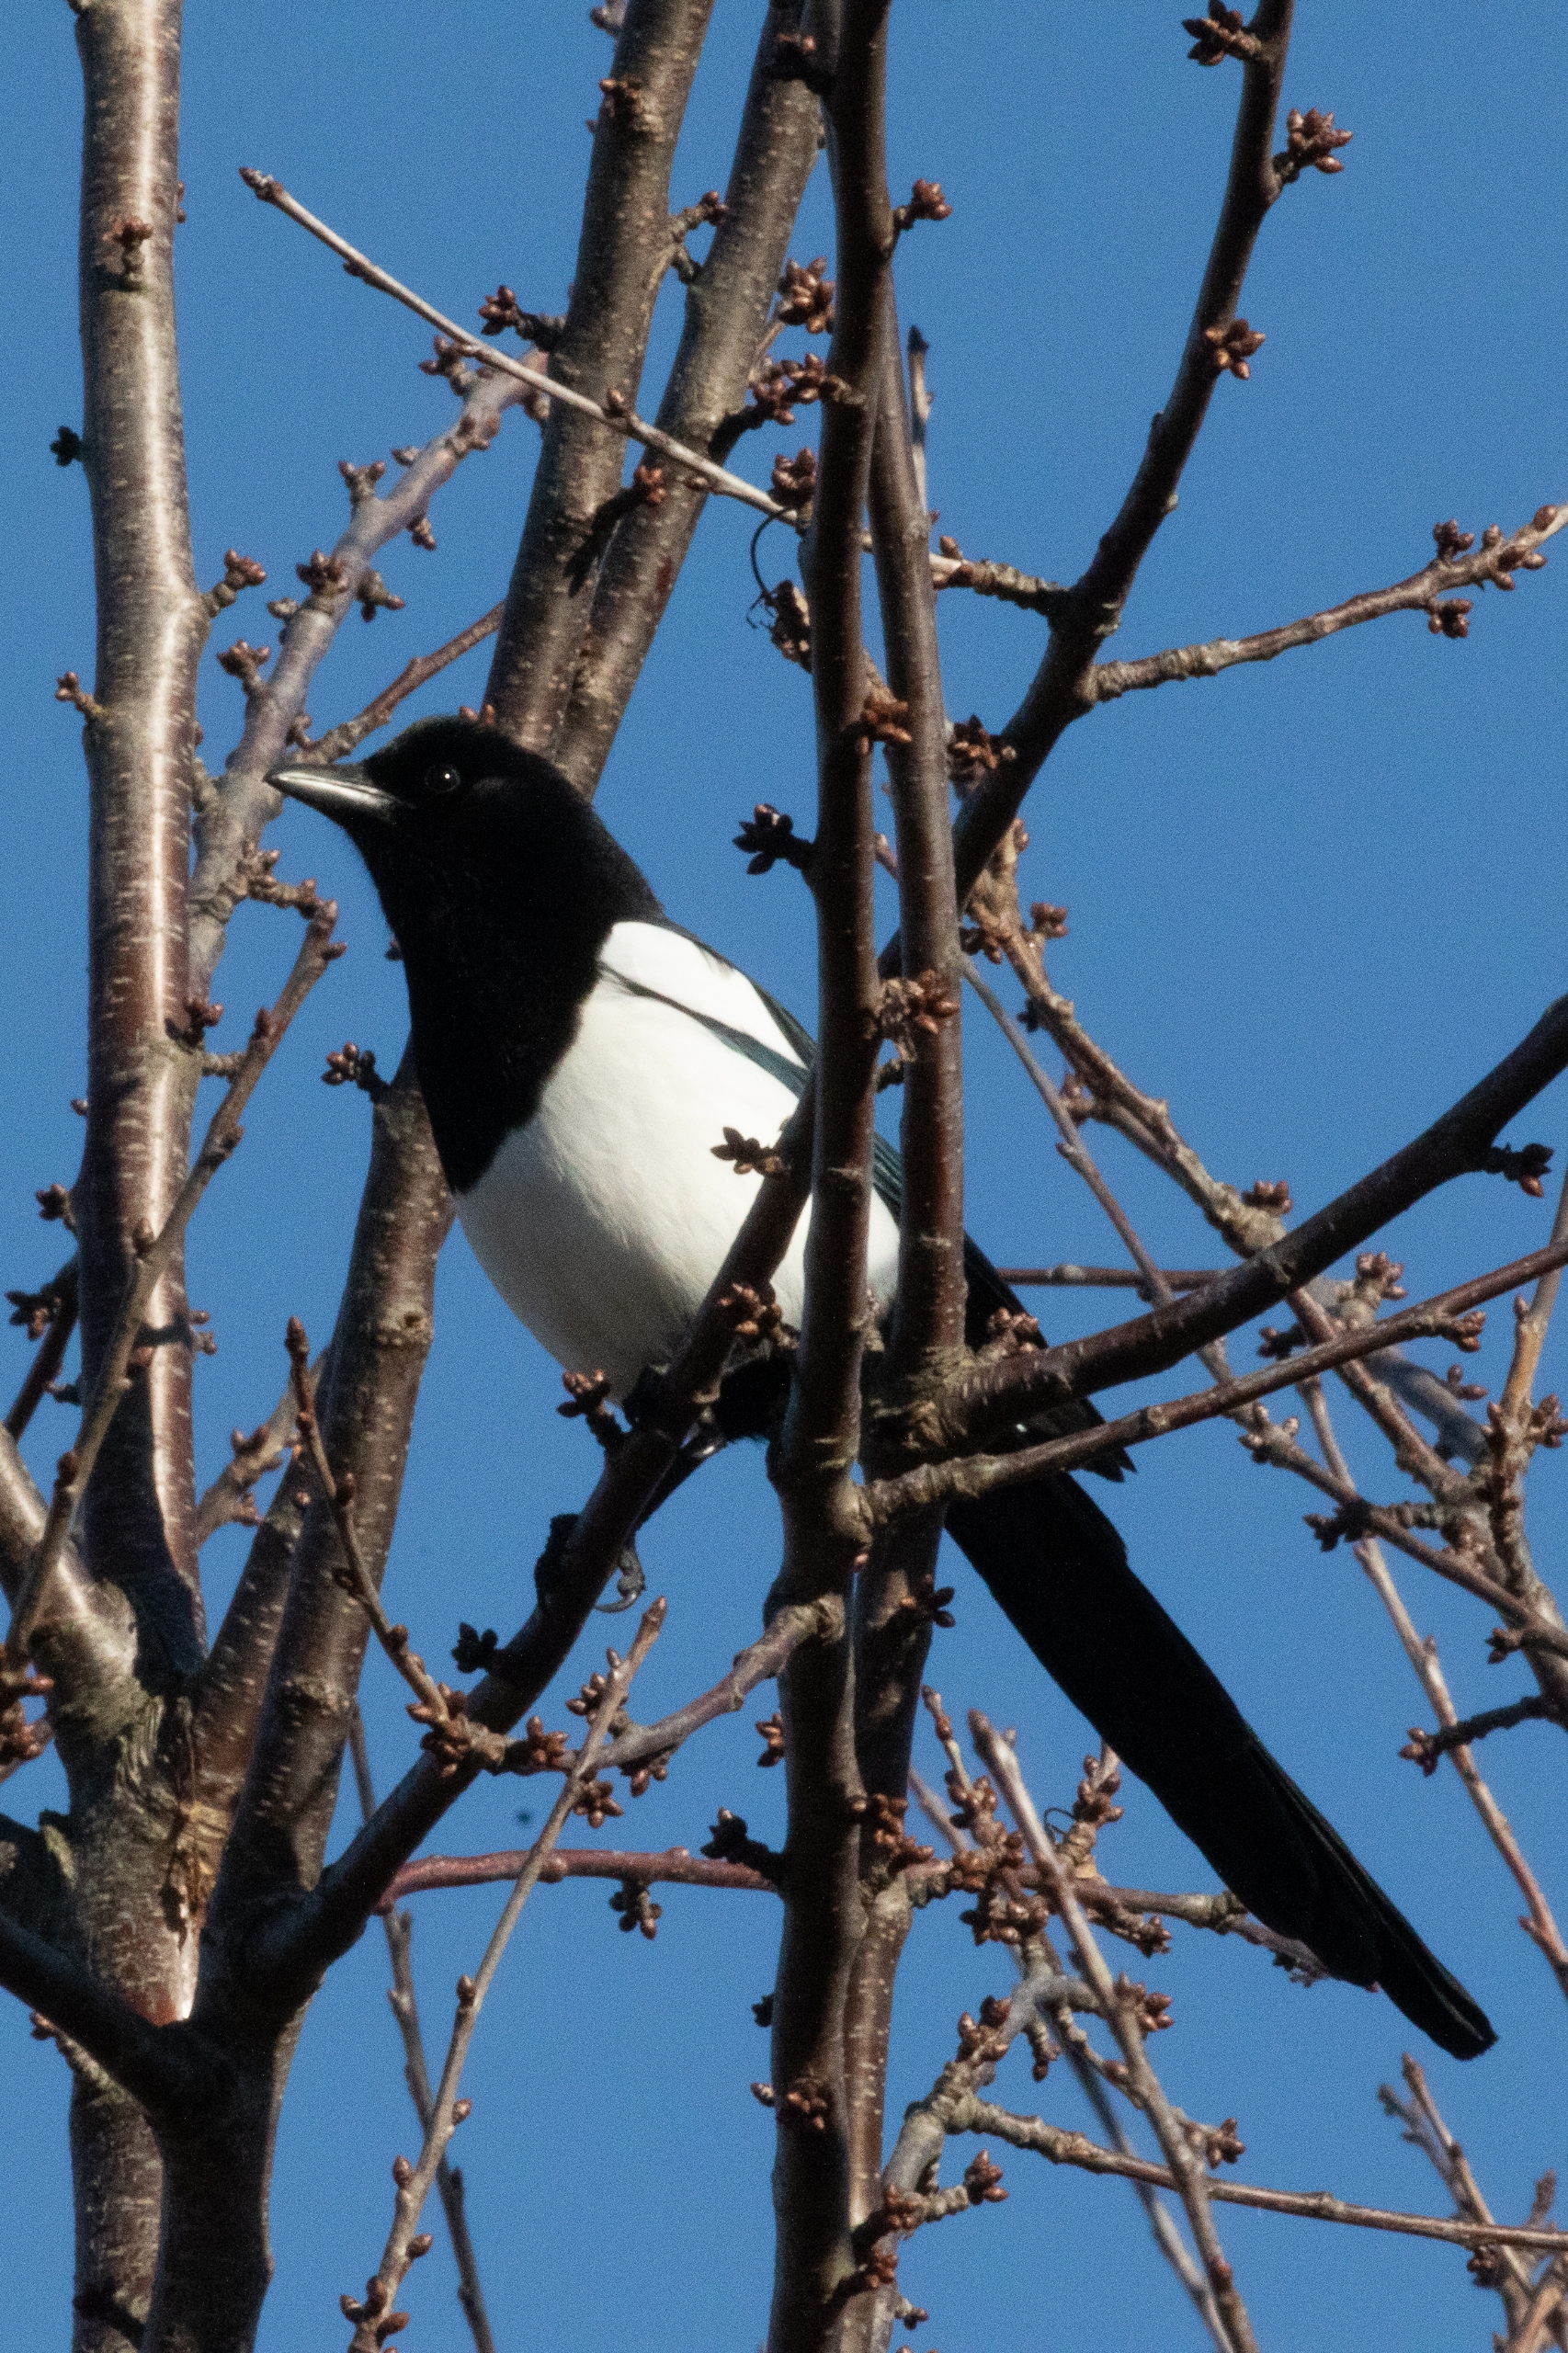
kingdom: Animalia
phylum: Chordata
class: Aves
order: Passeriformes
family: Corvidae
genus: Pica
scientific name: Pica pica
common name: Husskade
